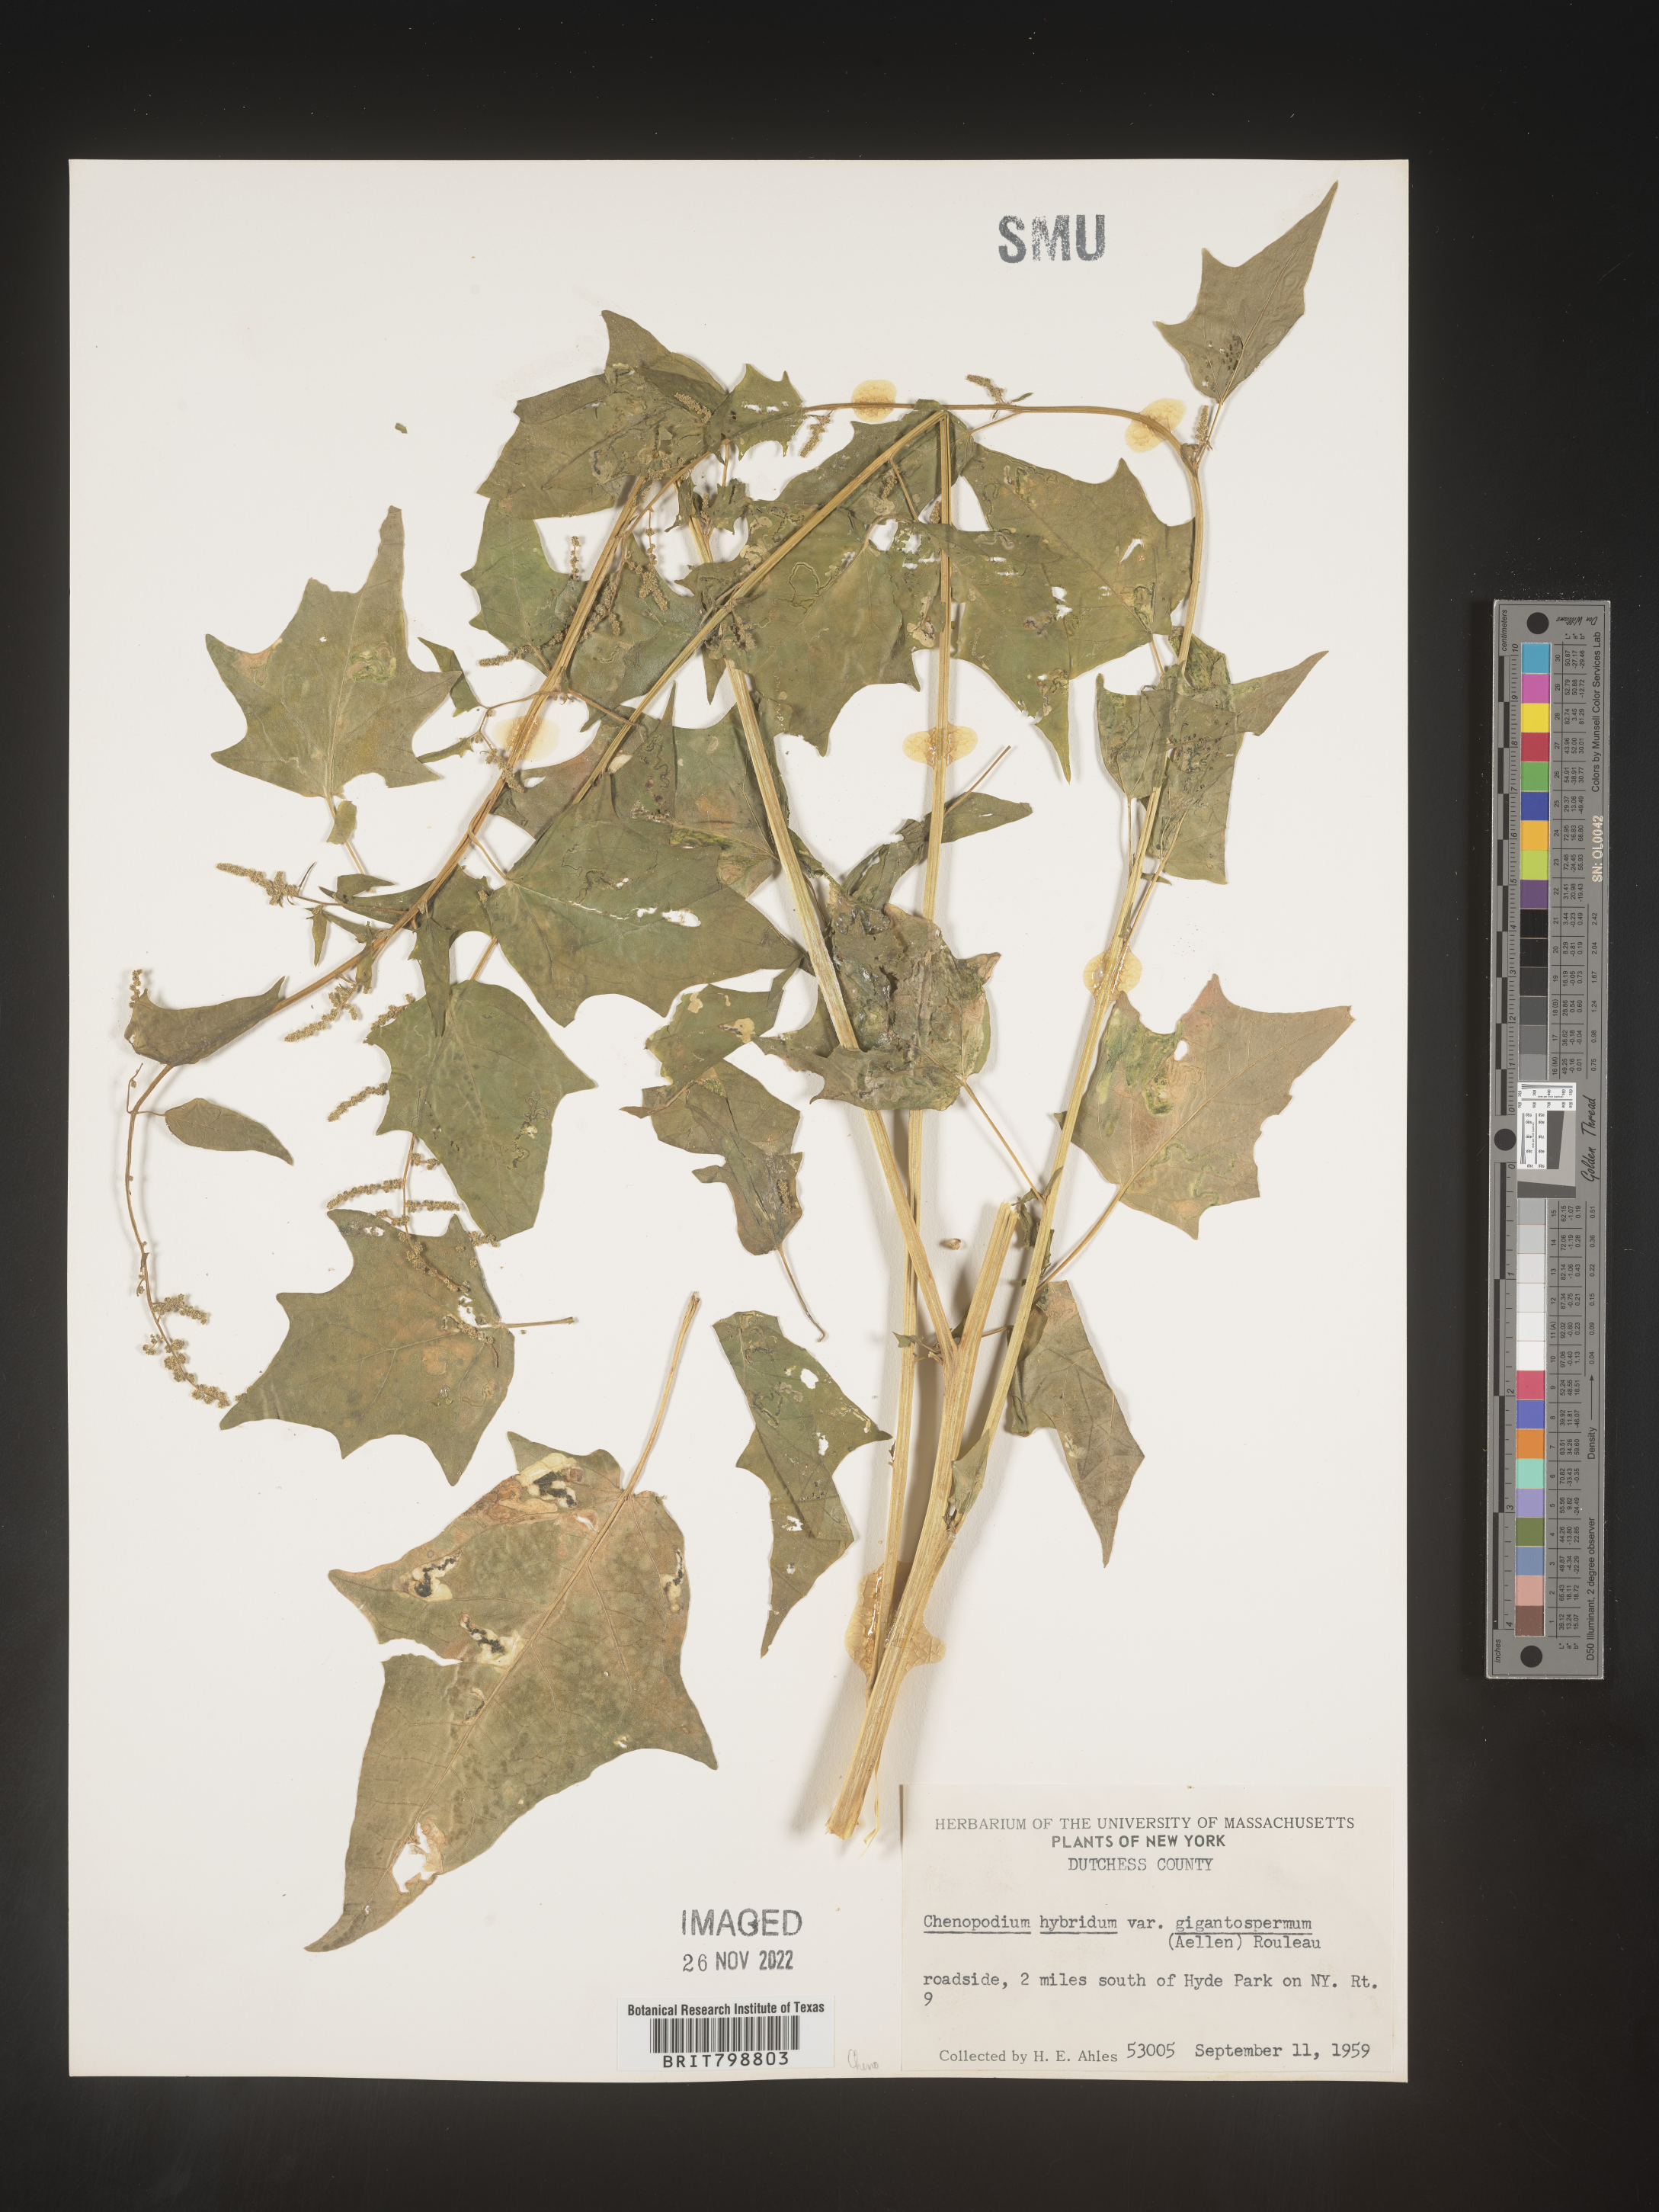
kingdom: Plantae
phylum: Tracheophyta
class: Magnoliopsida
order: Caryophyllales
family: Amaranthaceae
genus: Chenopodiastrum
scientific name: Chenopodiastrum simplex
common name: Large-seed goosefoot
